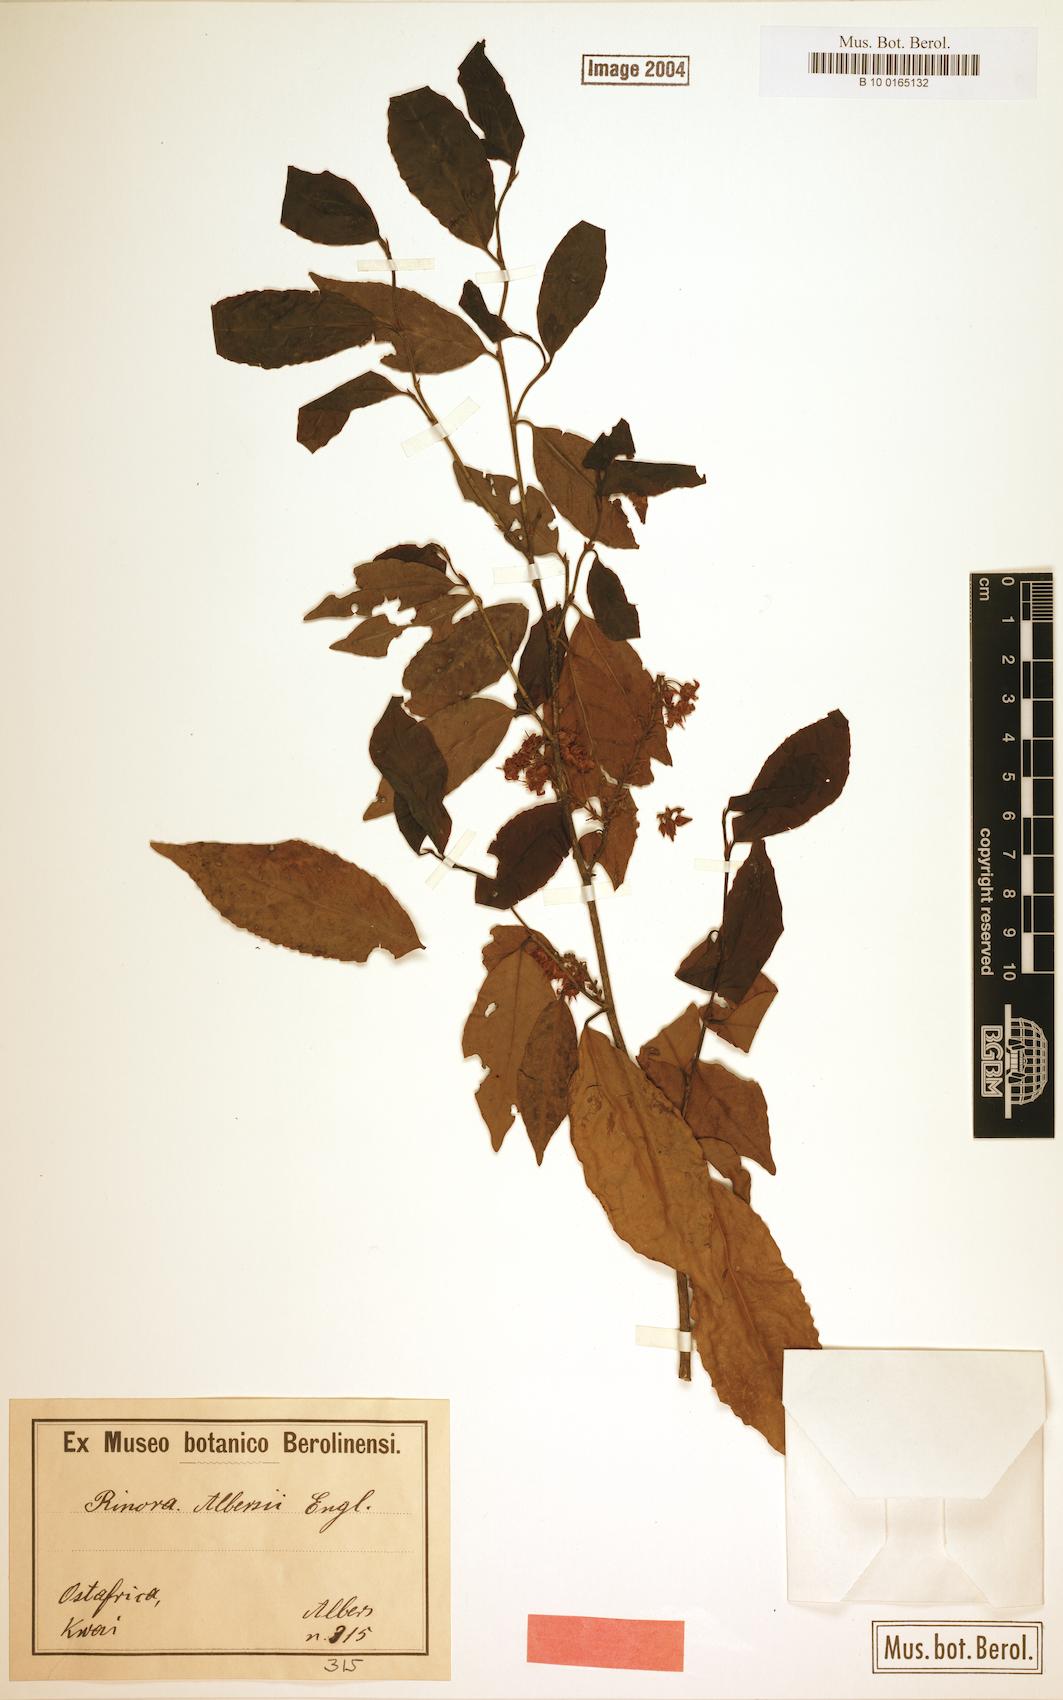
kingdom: Plantae
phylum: Tracheophyta
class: Magnoliopsida
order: Malpighiales
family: Violaceae
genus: Rinorea
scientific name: Rinorea angustifolia
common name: White violet-bush
